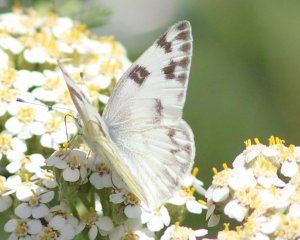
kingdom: Animalia
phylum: Arthropoda
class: Insecta
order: Lepidoptera
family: Pieridae
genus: Pontia
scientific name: Pontia protodice
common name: Checkered White
